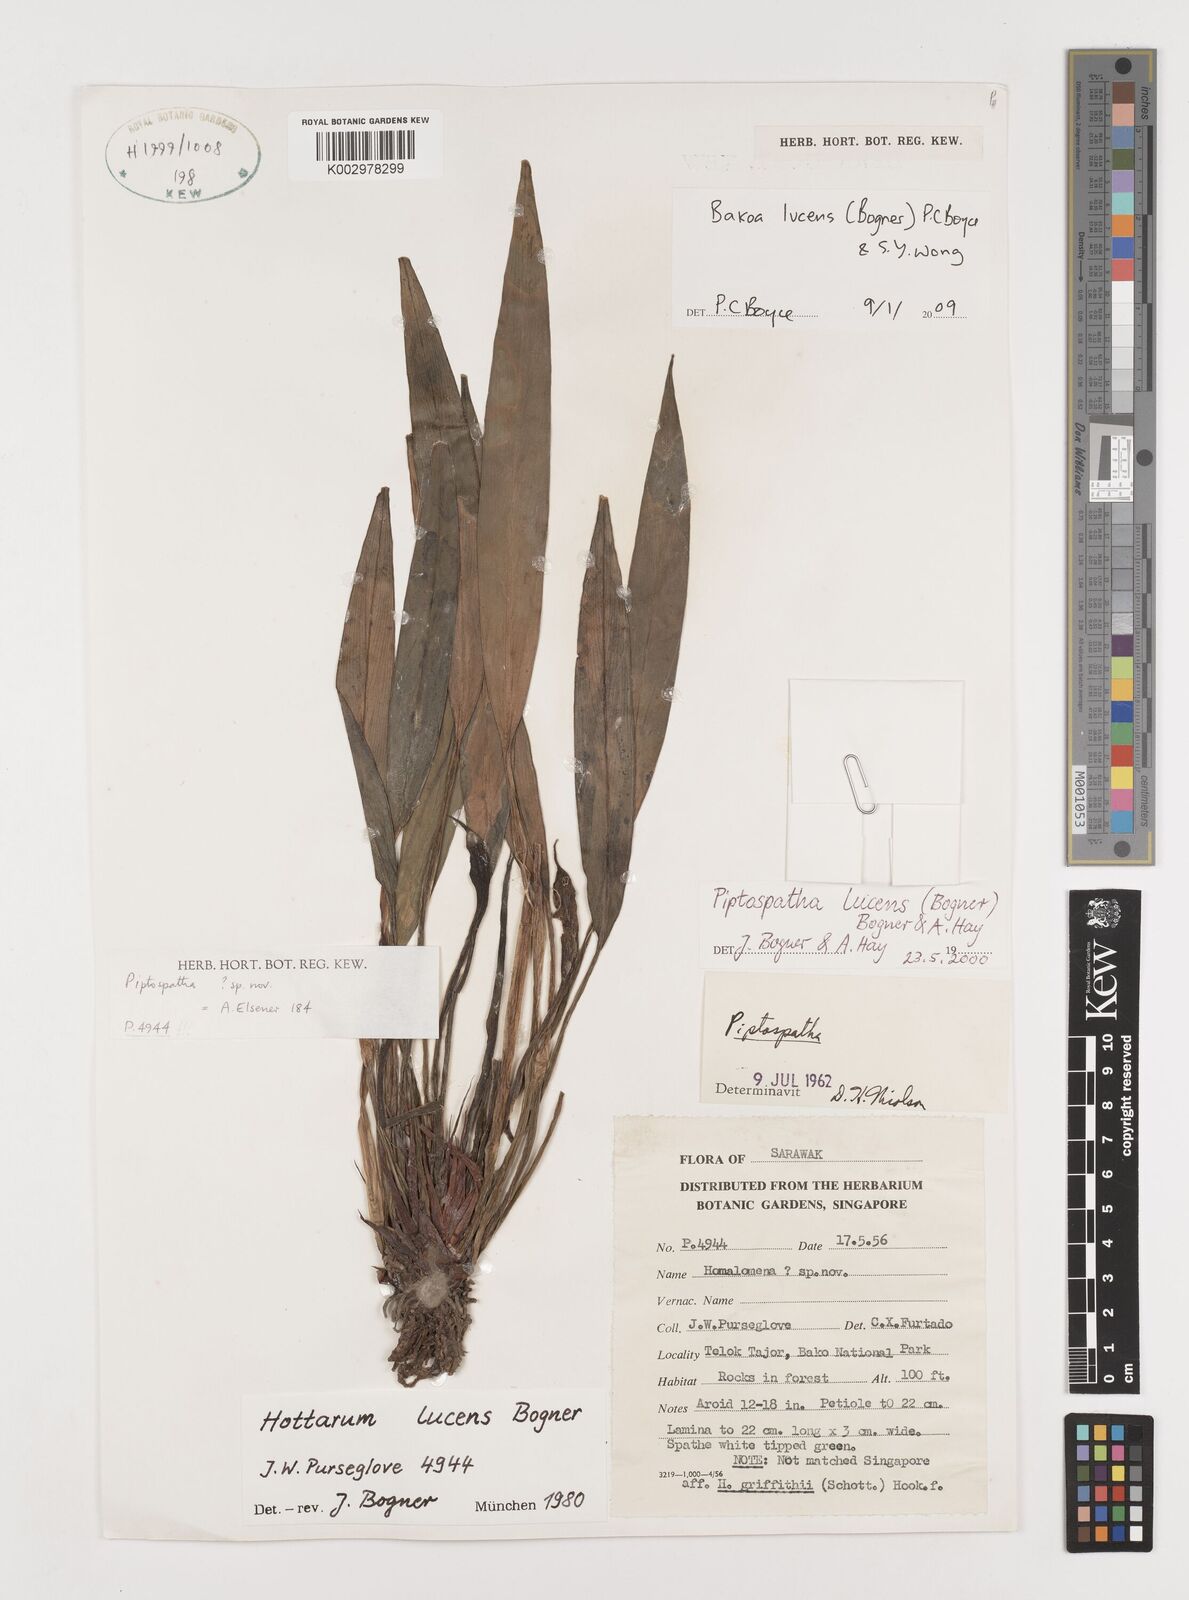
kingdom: Plantae
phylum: Tracheophyta
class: Liliopsida
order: Alismatales
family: Araceae
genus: Bakoa
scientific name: Bakoa lucens
